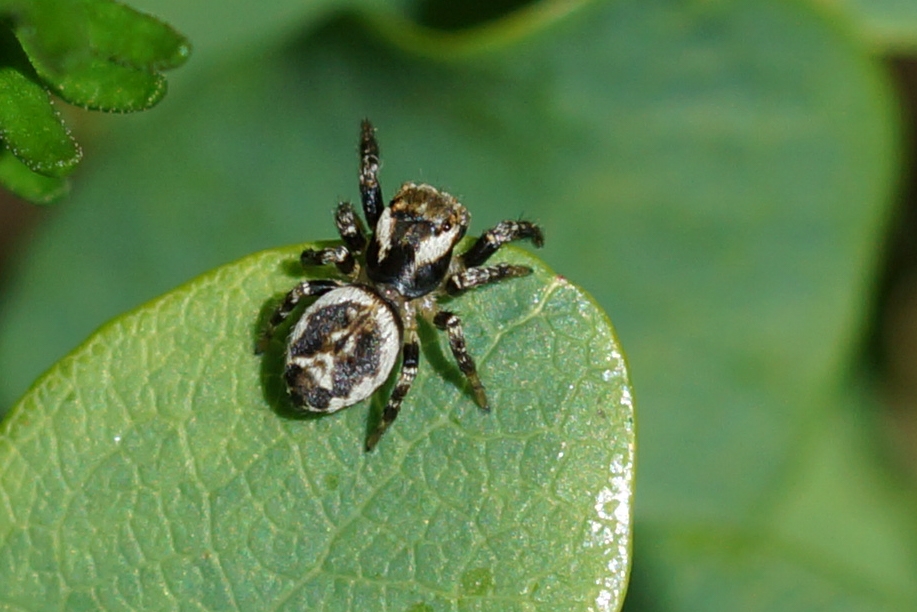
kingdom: Animalia
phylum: Arthropoda
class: Arachnida
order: Araneae
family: Salticidae
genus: Evarcha
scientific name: Evarcha falcata
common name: Broget springedderkop
